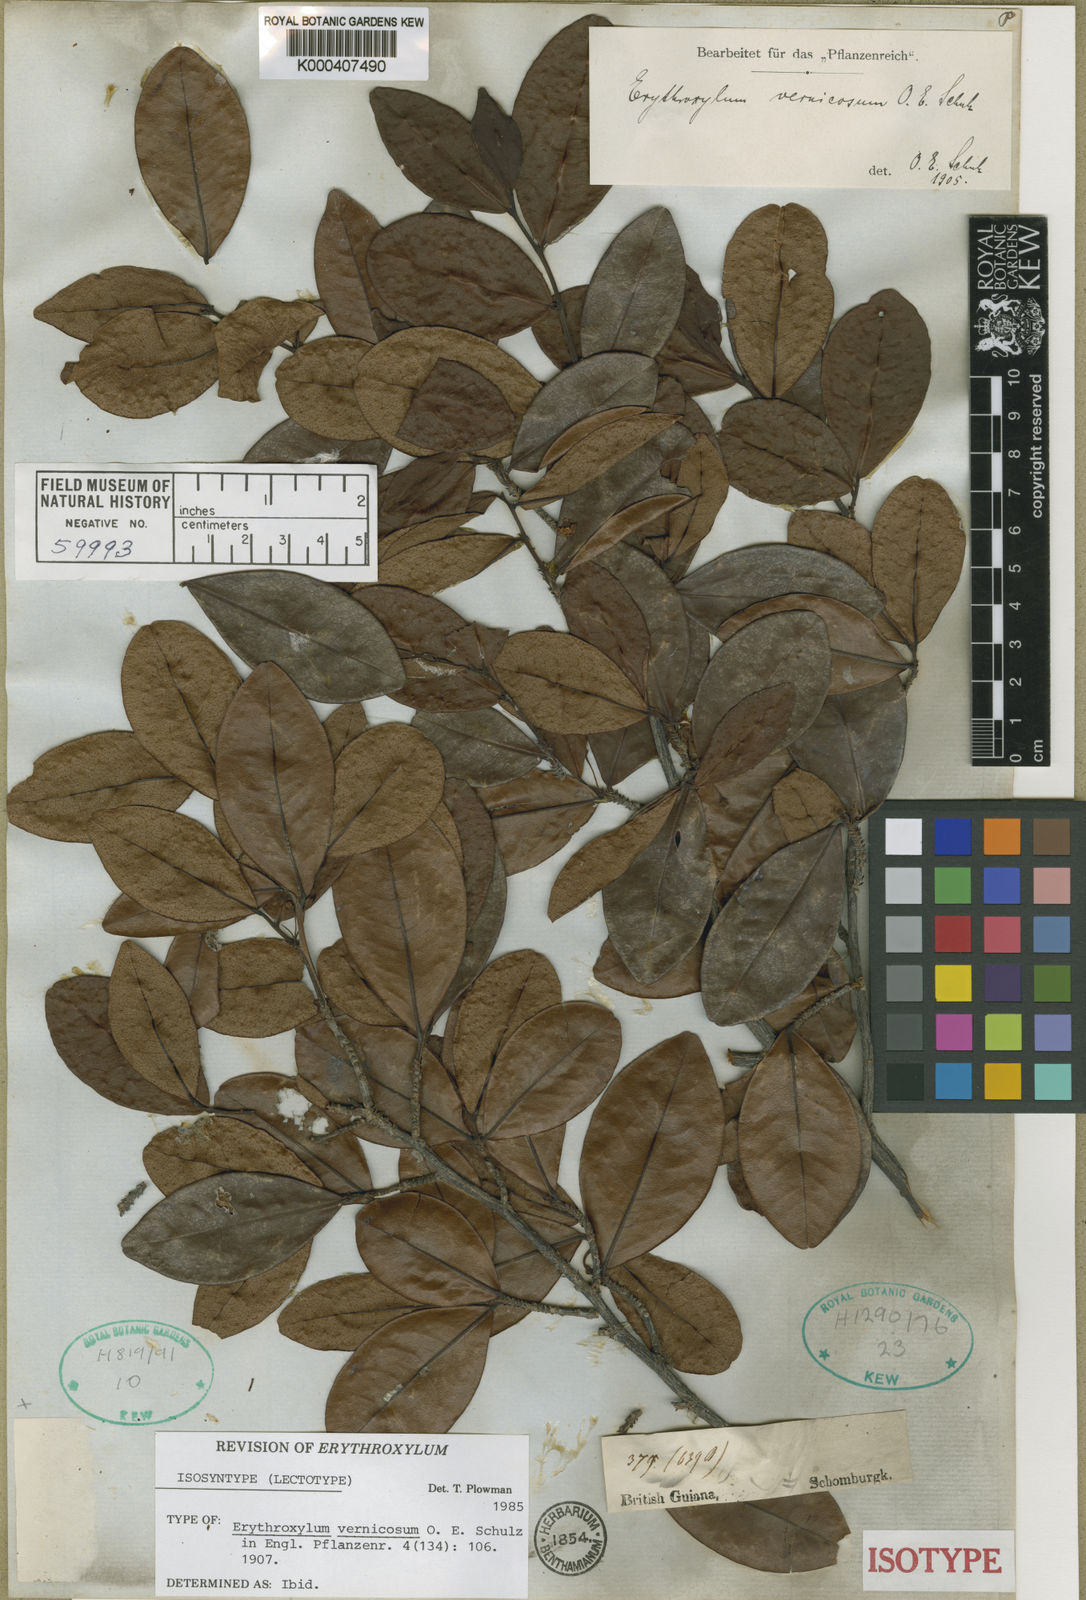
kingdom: Plantae
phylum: Tracheophyta
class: Magnoliopsida
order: Malpighiales
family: Erythroxylaceae
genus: Erythroxylum
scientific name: Erythroxylum vernicosum
